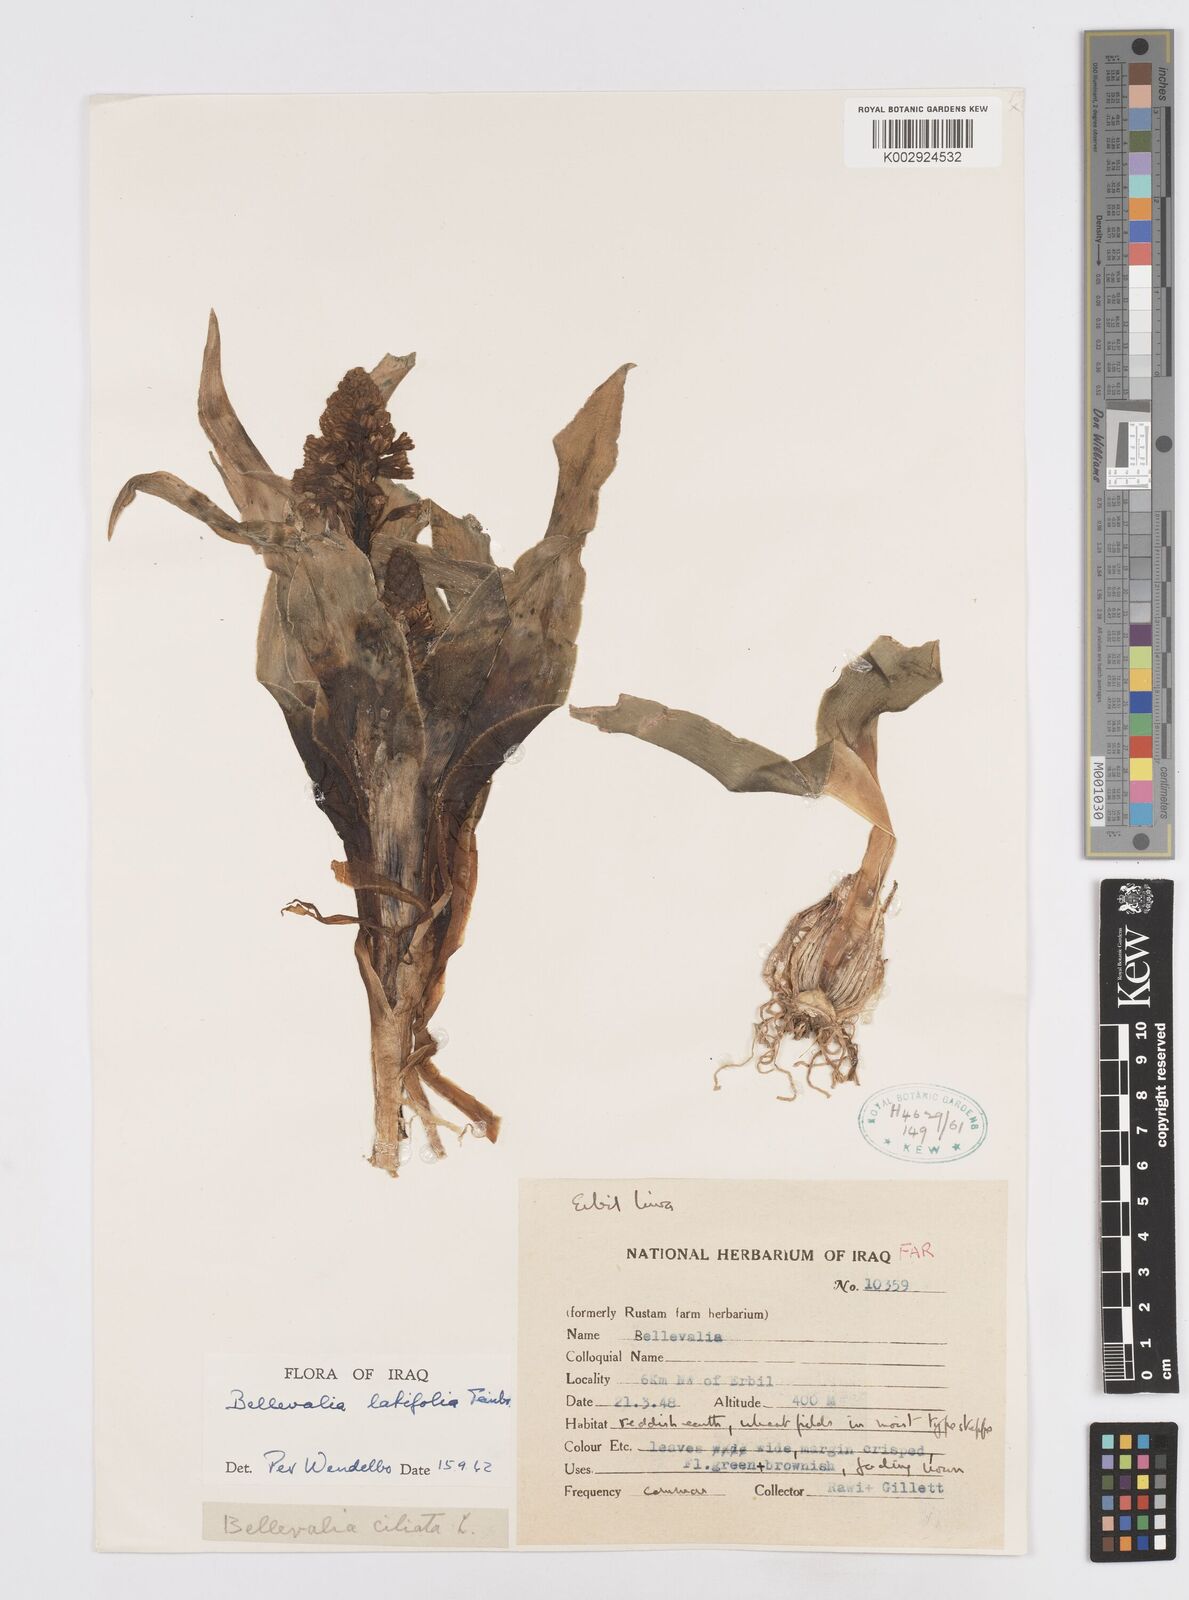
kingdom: Plantae
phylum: Tracheophyta
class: Liliopsida
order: Asparagales
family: Asparagaceae
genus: Bellevalia
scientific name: Bellevalia olivieri
